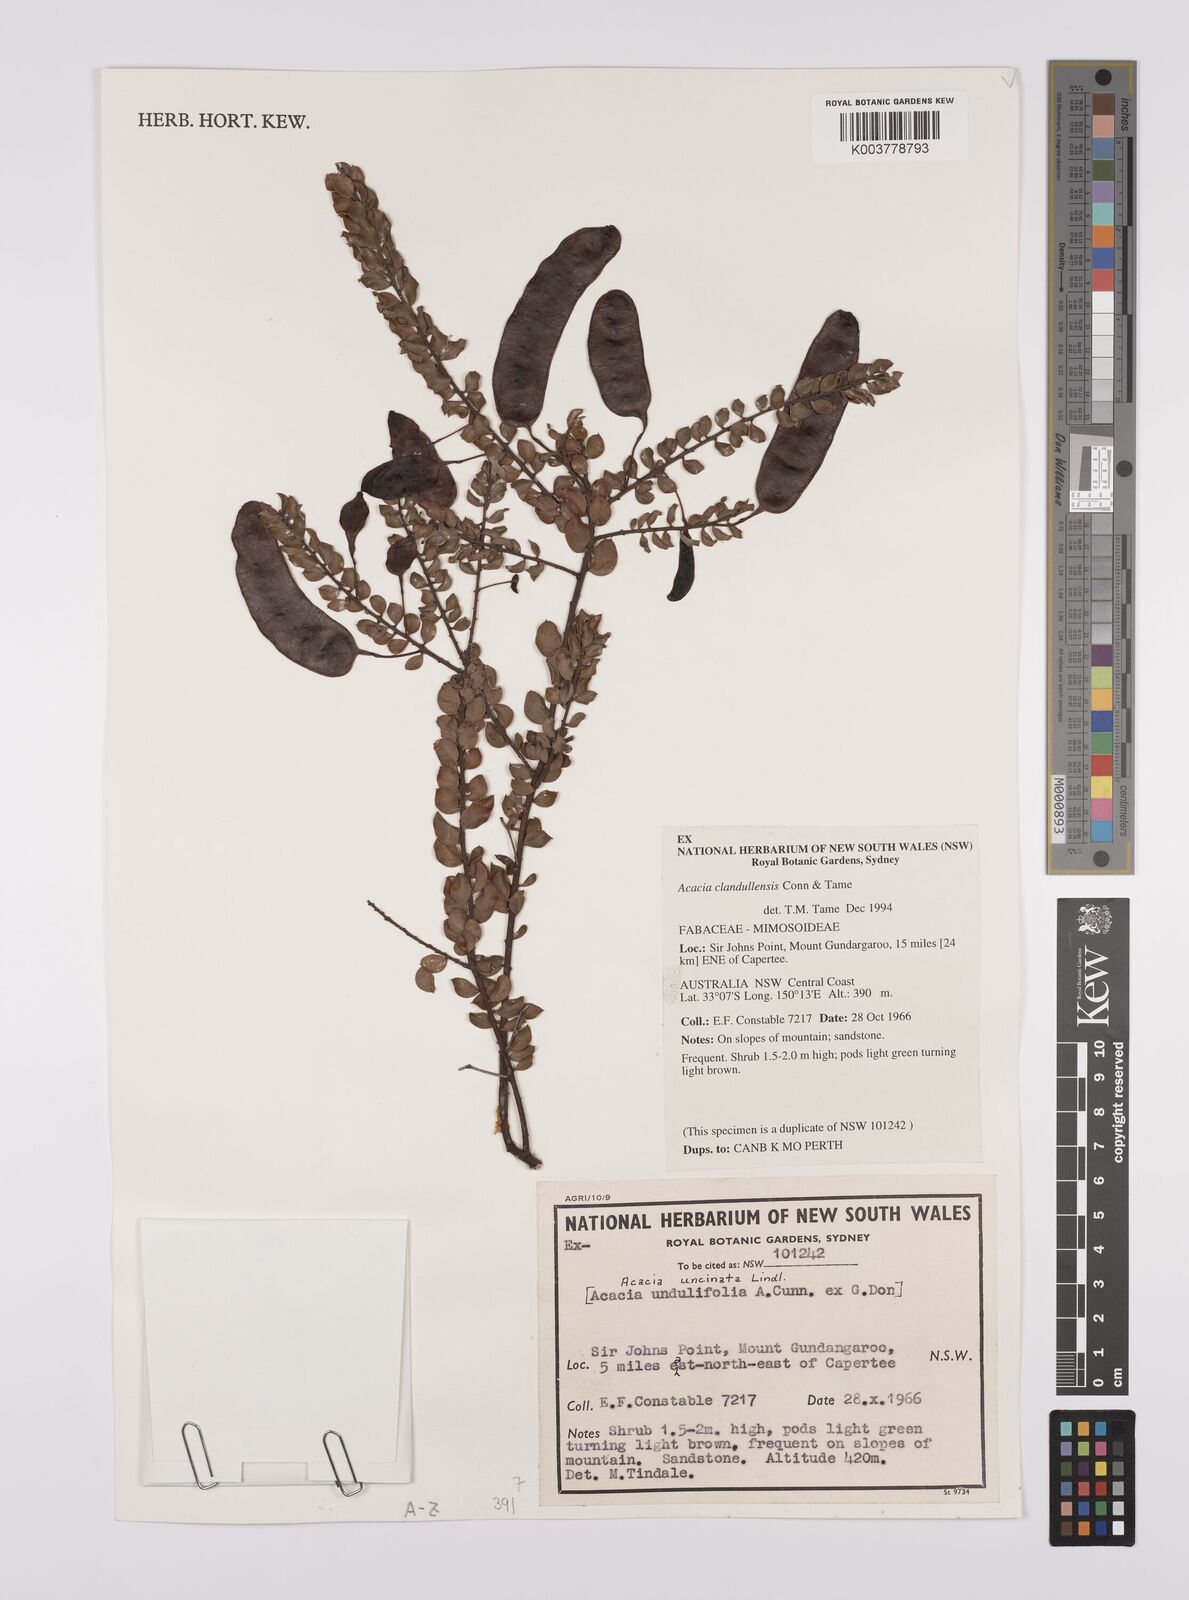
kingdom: Plantae
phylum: Tracheophyta
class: Magnoliopsida
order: Fabales
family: Fabaceae
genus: Acacia
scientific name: Acacia clandullensis
